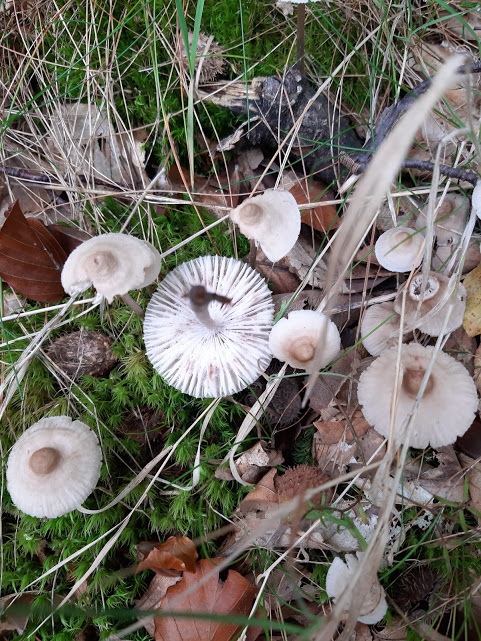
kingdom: Fungi
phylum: Basidiomycota
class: Agaricomycetes
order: Agaricales
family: Mycenaceae
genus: Mycena
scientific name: Mycena zephirus
